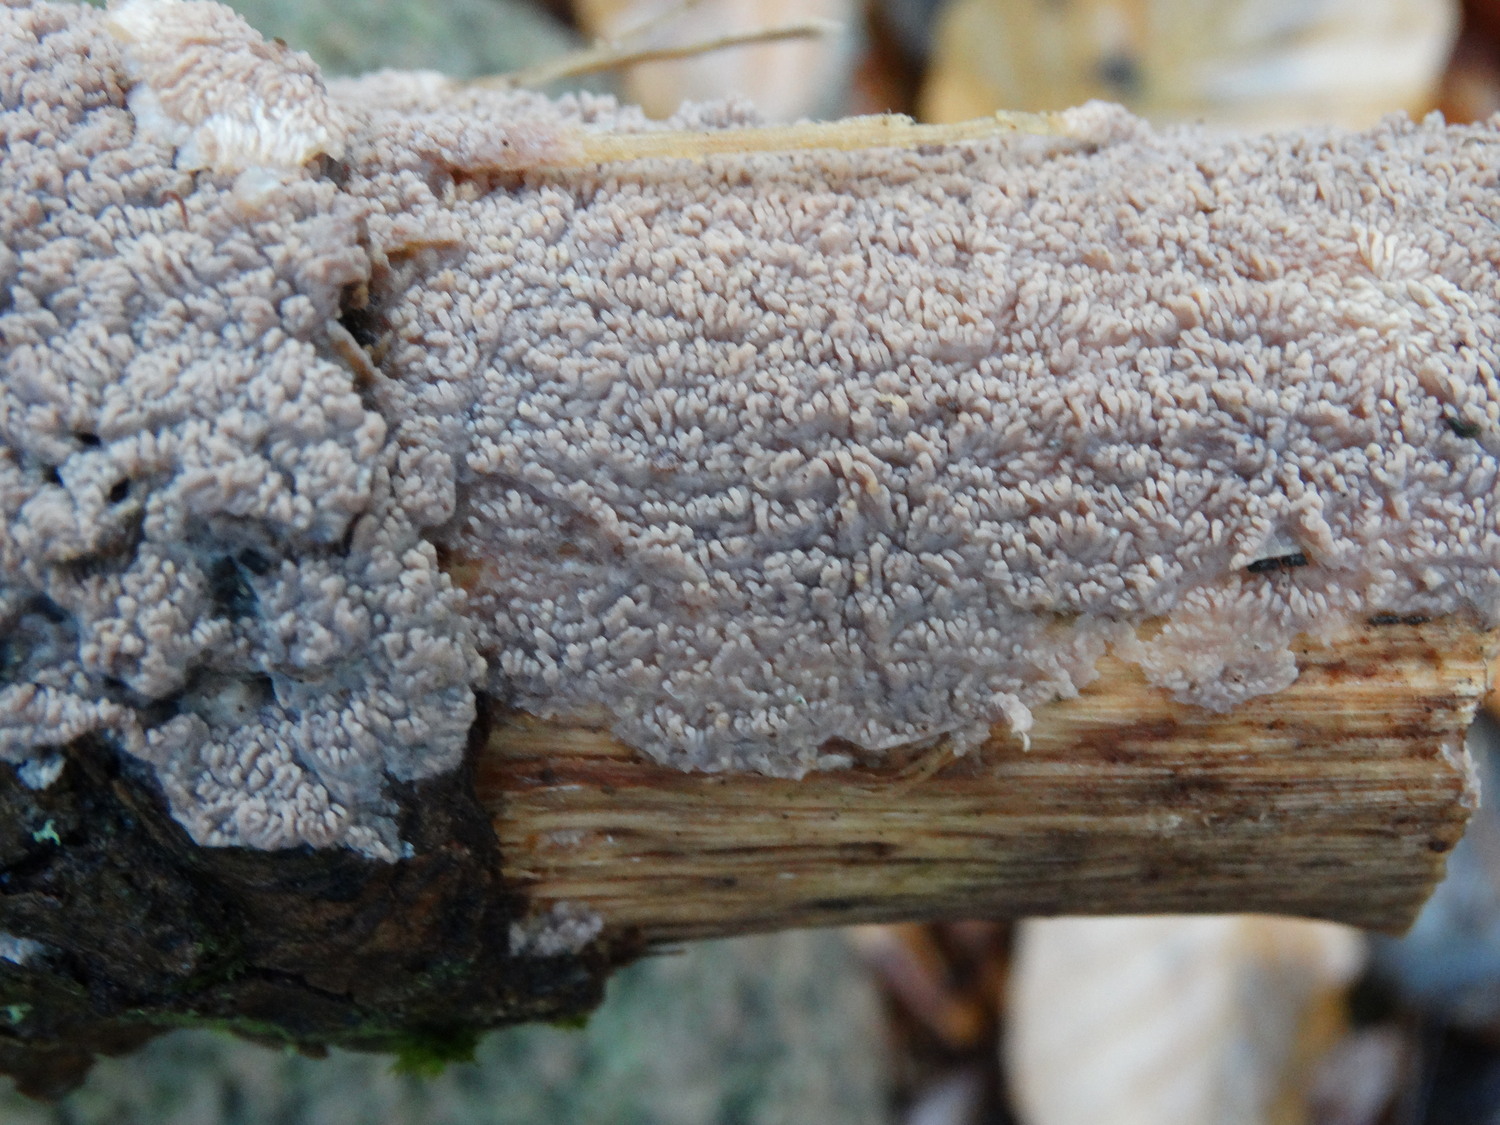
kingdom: Fungi
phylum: Basidiomycota
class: Agaricomycetes
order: Polyporales
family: Meruliaceae
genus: Phlebia
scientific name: Phlebia radiata
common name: stråle-åresvamp
